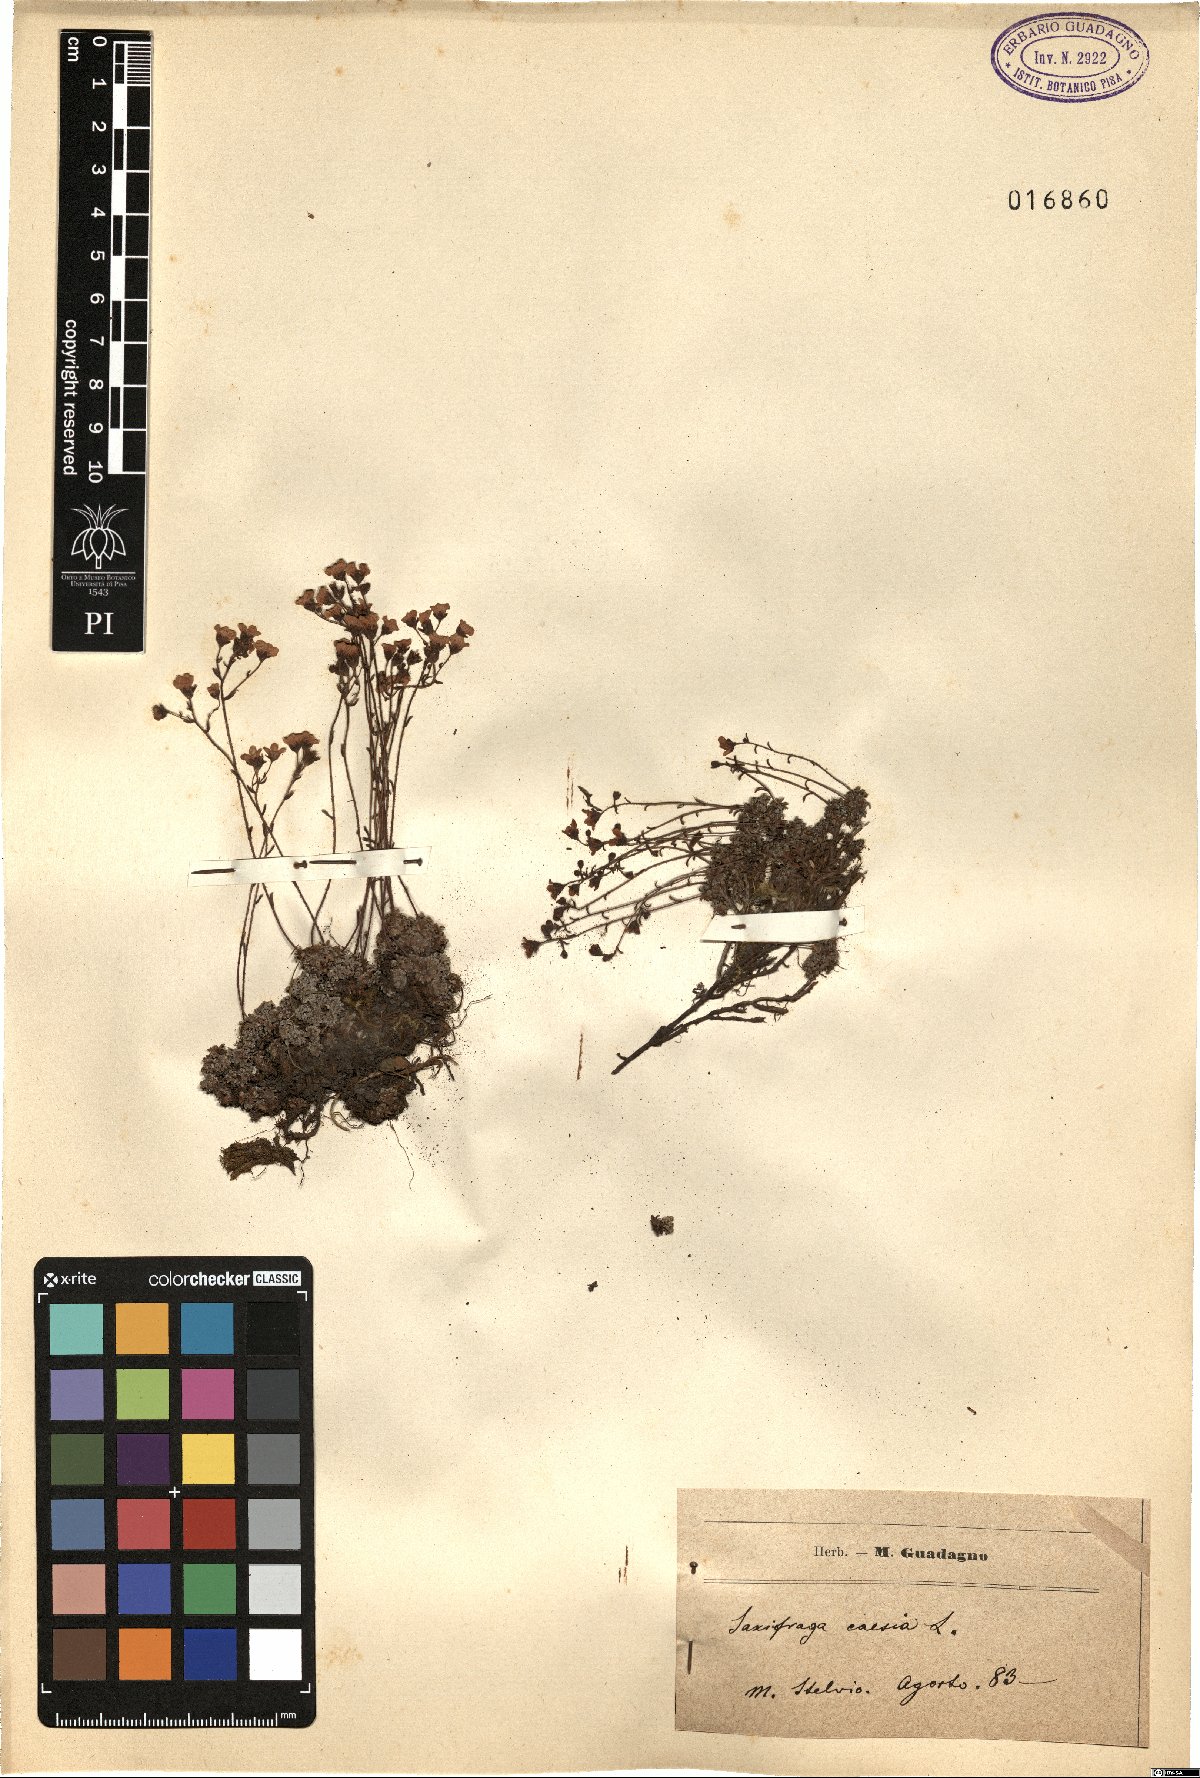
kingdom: Plantae
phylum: Tracheophyta
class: Magnoliopsida
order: Saxifragales
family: Saxifragaceae
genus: Saxifraga
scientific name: Saxifraga caesia
